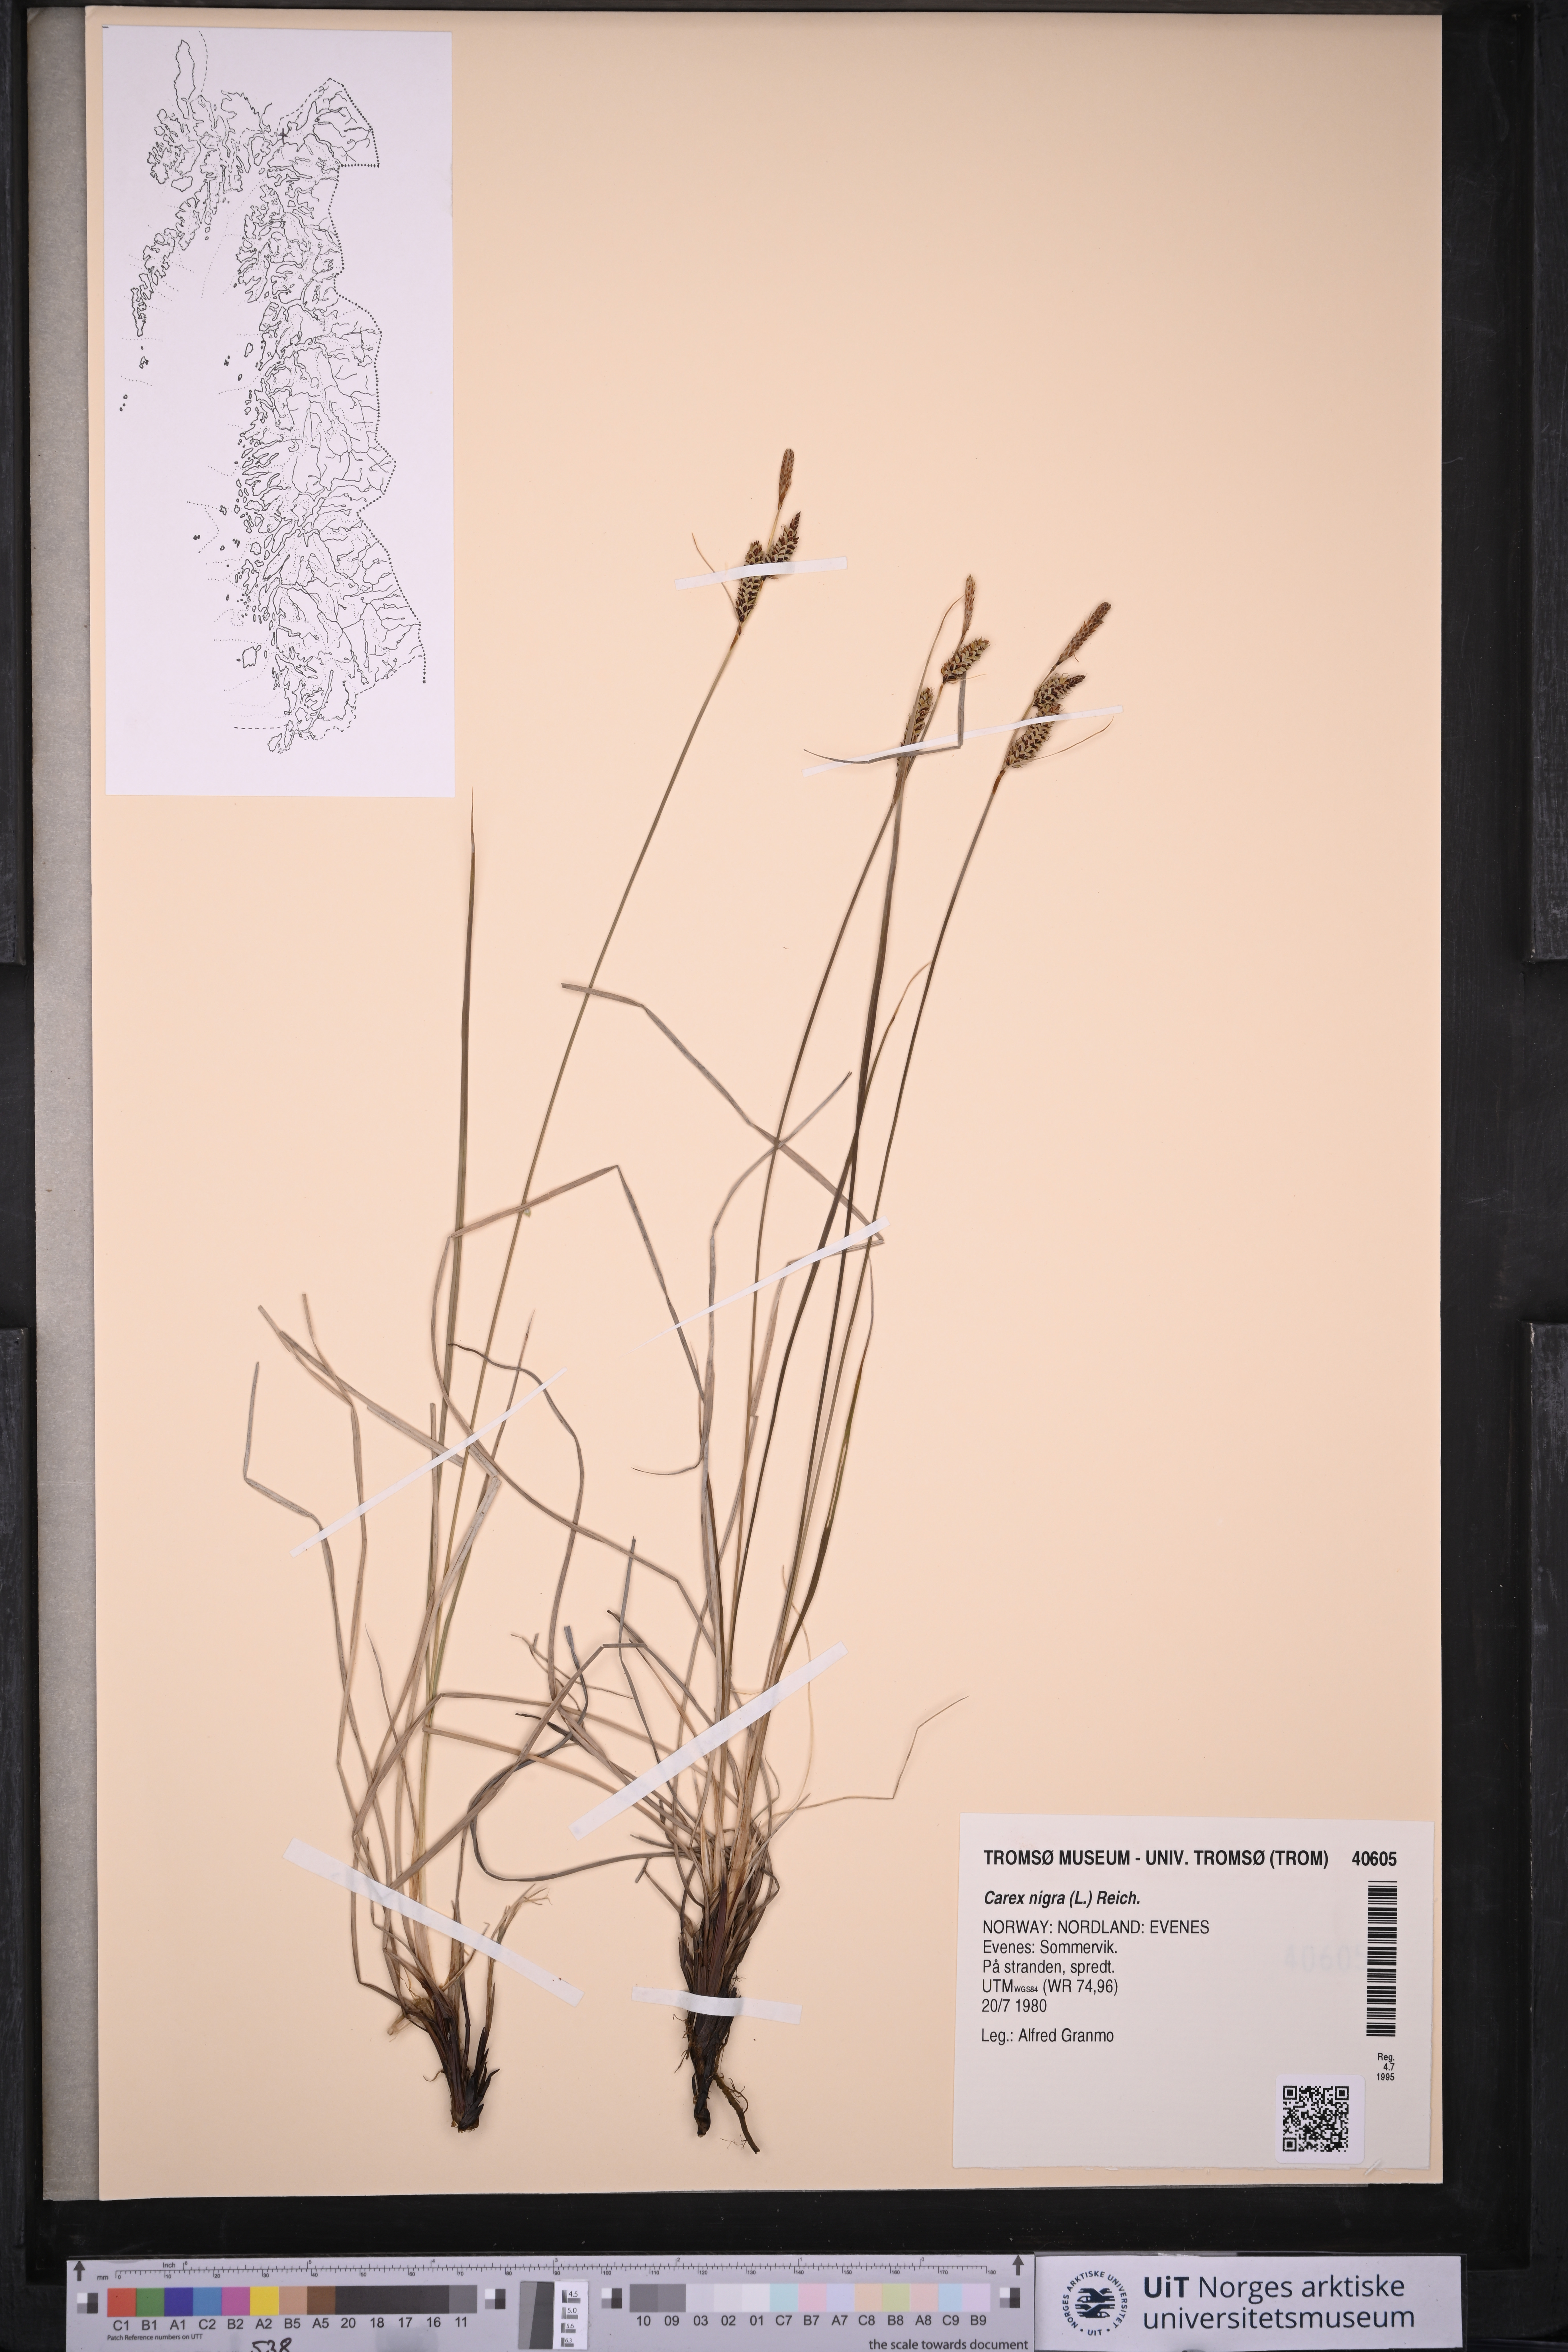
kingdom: Plantae
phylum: Tracheophyta
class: Liliopsida
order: Poales
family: Cyperaceae
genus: Carex
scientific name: Carex nigra
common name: Common sedge
